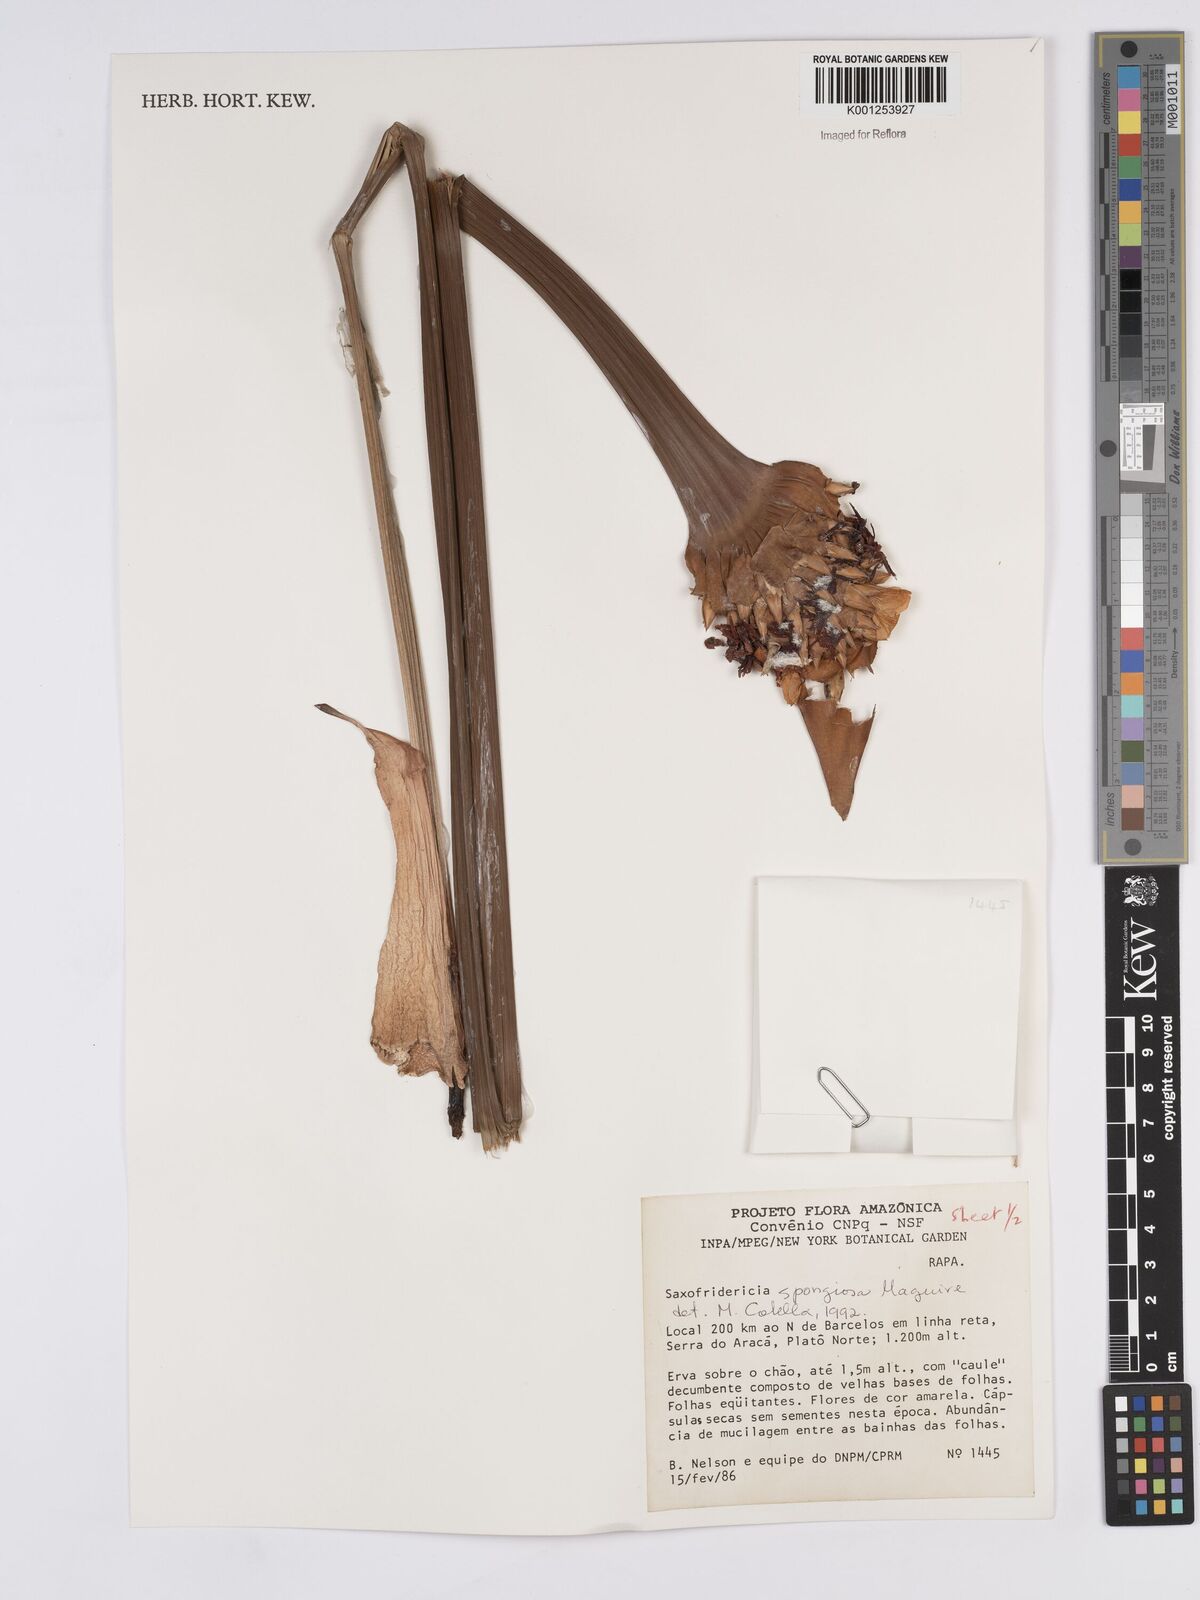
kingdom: Plantae
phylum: Tracheophyta
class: Liliopsida
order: Poales
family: Rapateaceae
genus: Saxofridericia
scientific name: Saxofridericia spongiosa
